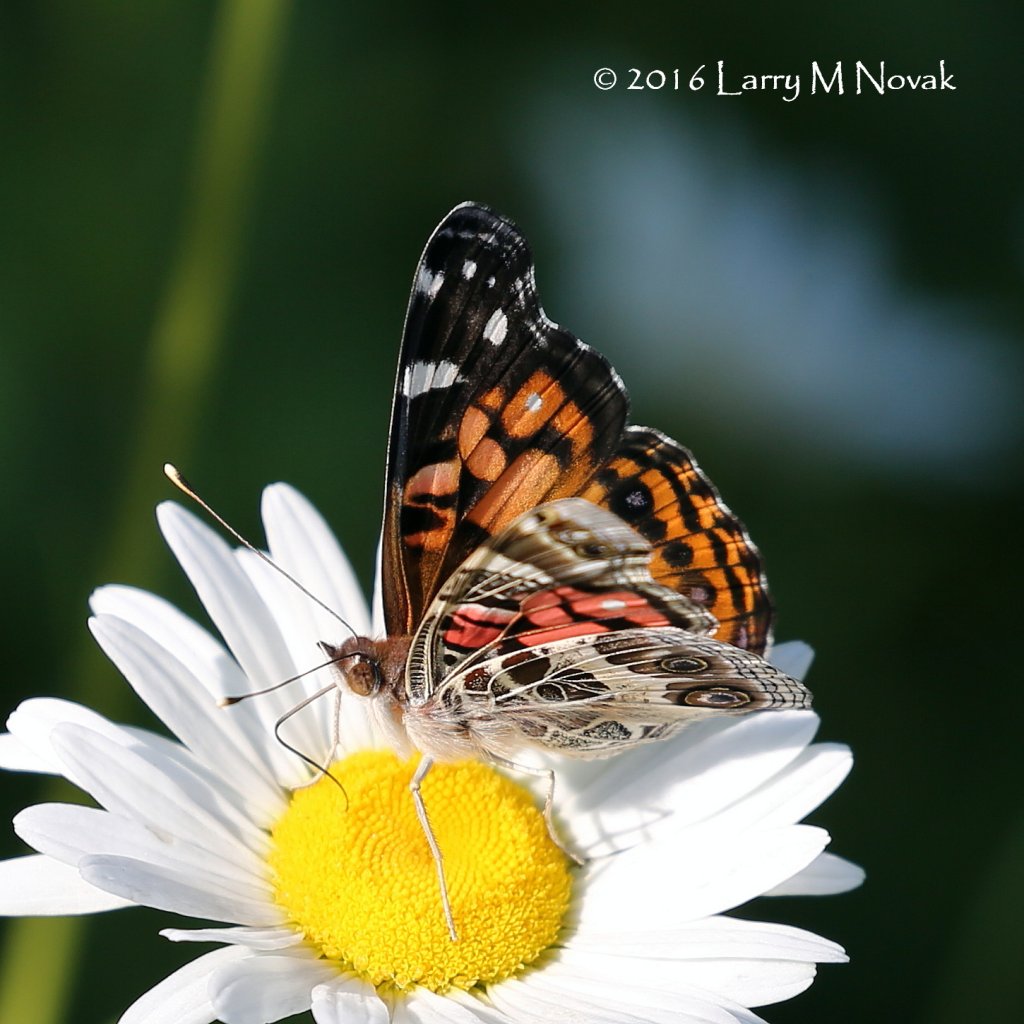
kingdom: Animalia
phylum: Arthropoda
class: Insecta
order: Lepidoptera
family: Nymphalidae
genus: Vanessa
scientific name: Vanessa virginiensis
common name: American Lady
